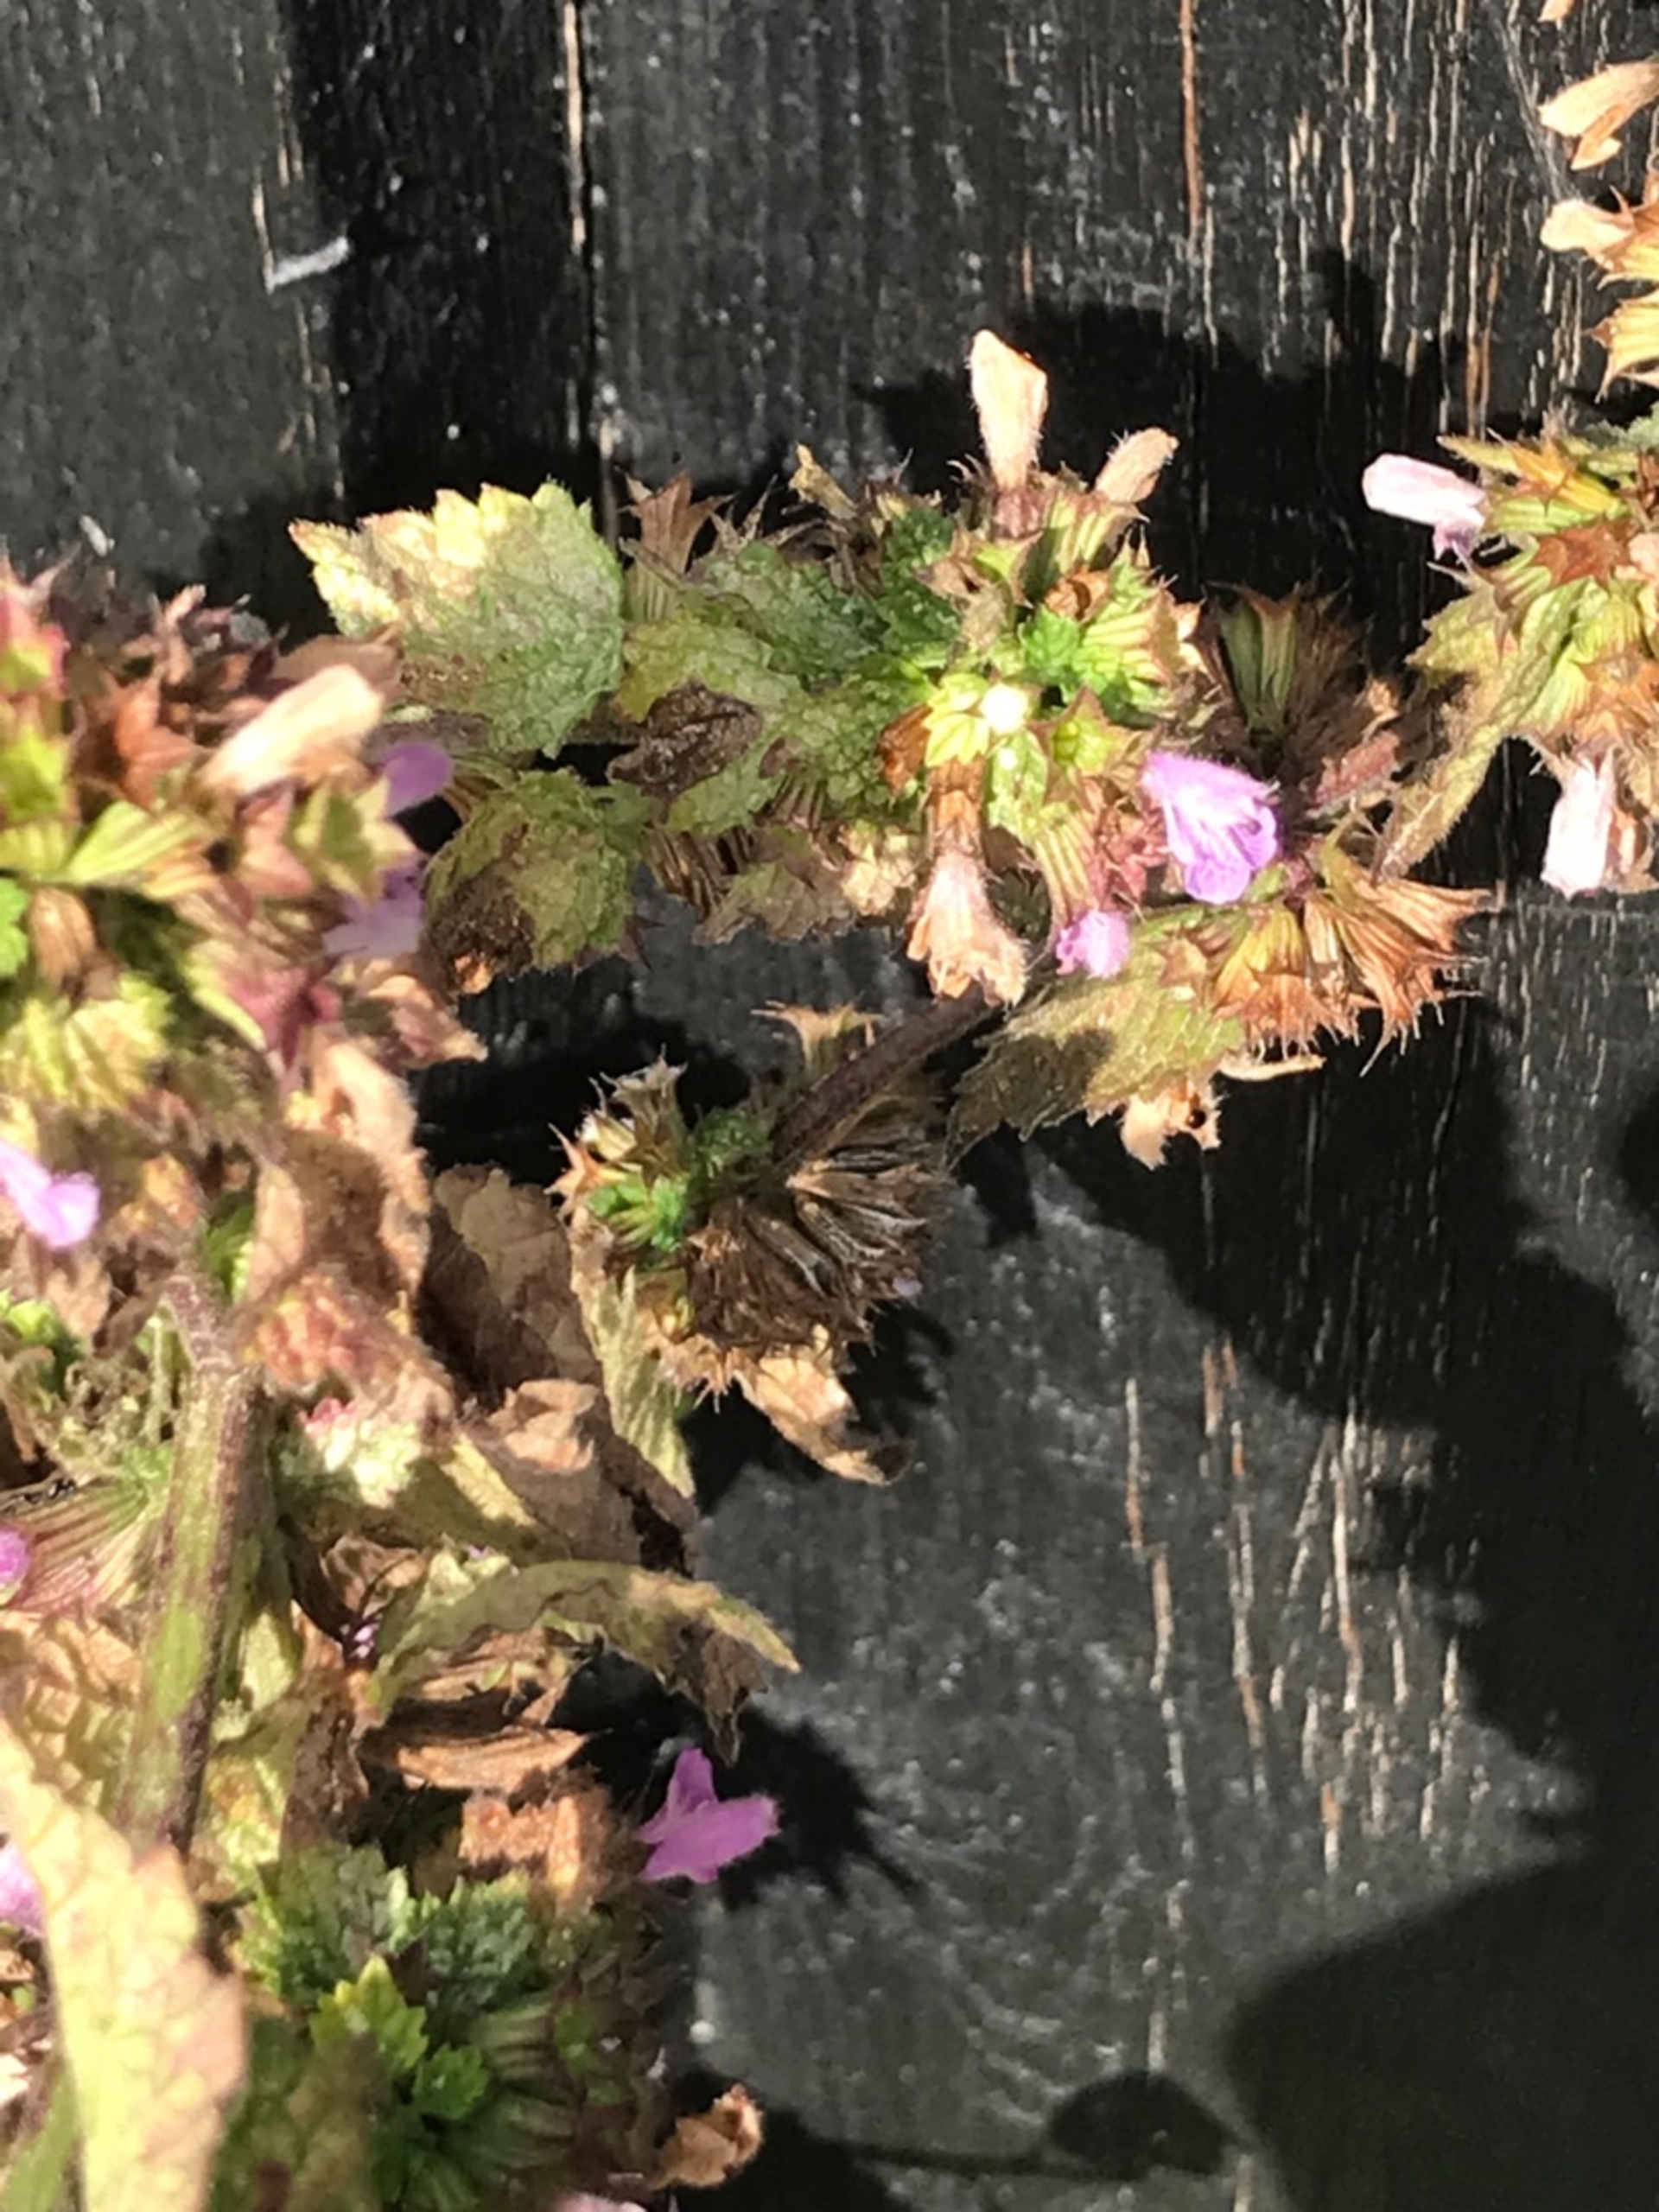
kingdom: Plantae
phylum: Tracheophyta
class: Magnoliopsida
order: Lamiales
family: Lamiaceae
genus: Ballota
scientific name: Ballota nigra
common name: Rød tandbæger
